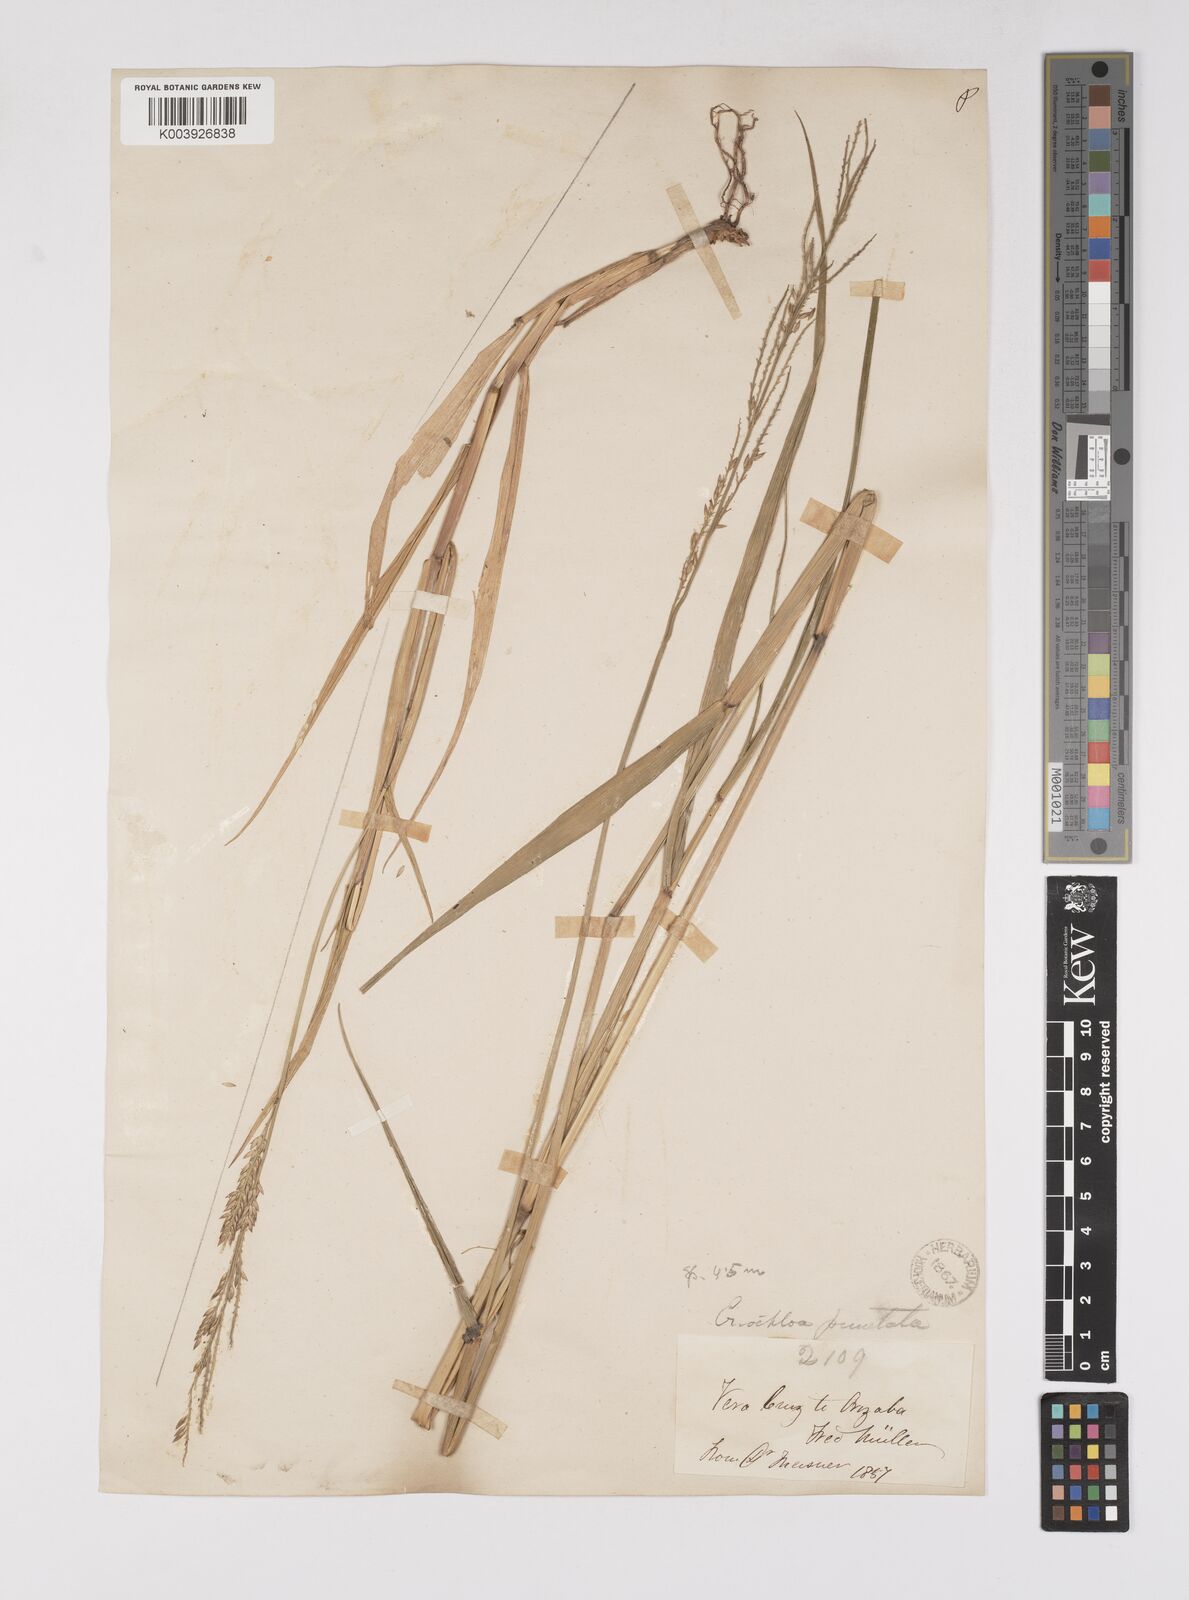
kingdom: Plantae
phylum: Tracheophyta
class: Liliopsida
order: Poales
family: Poaceae
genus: Eriochloa
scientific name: Eriochloa punctata
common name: Louisiana cupgrass
